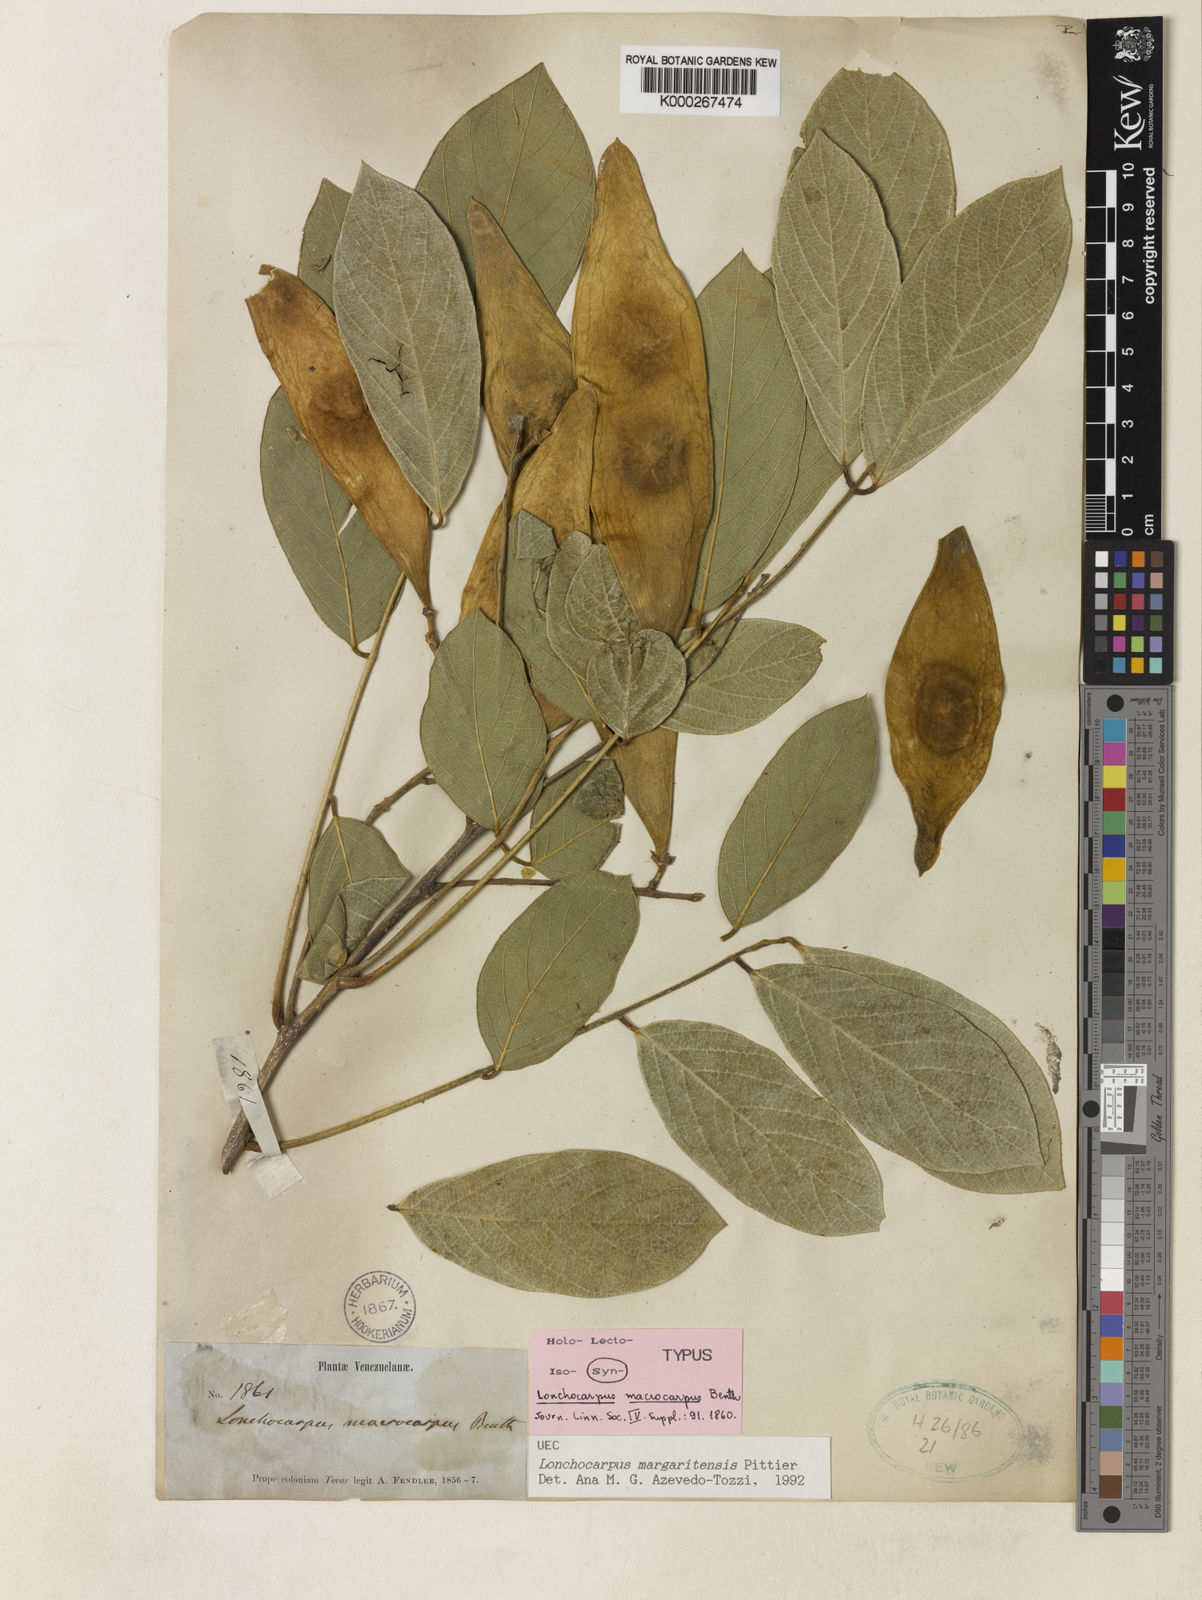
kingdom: Plantae
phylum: Tracheophyta
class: Magnoliopsida
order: Fabales
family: Fabaceae
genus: Lonchocarpus
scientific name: Lonchocarpus hedyosmus
